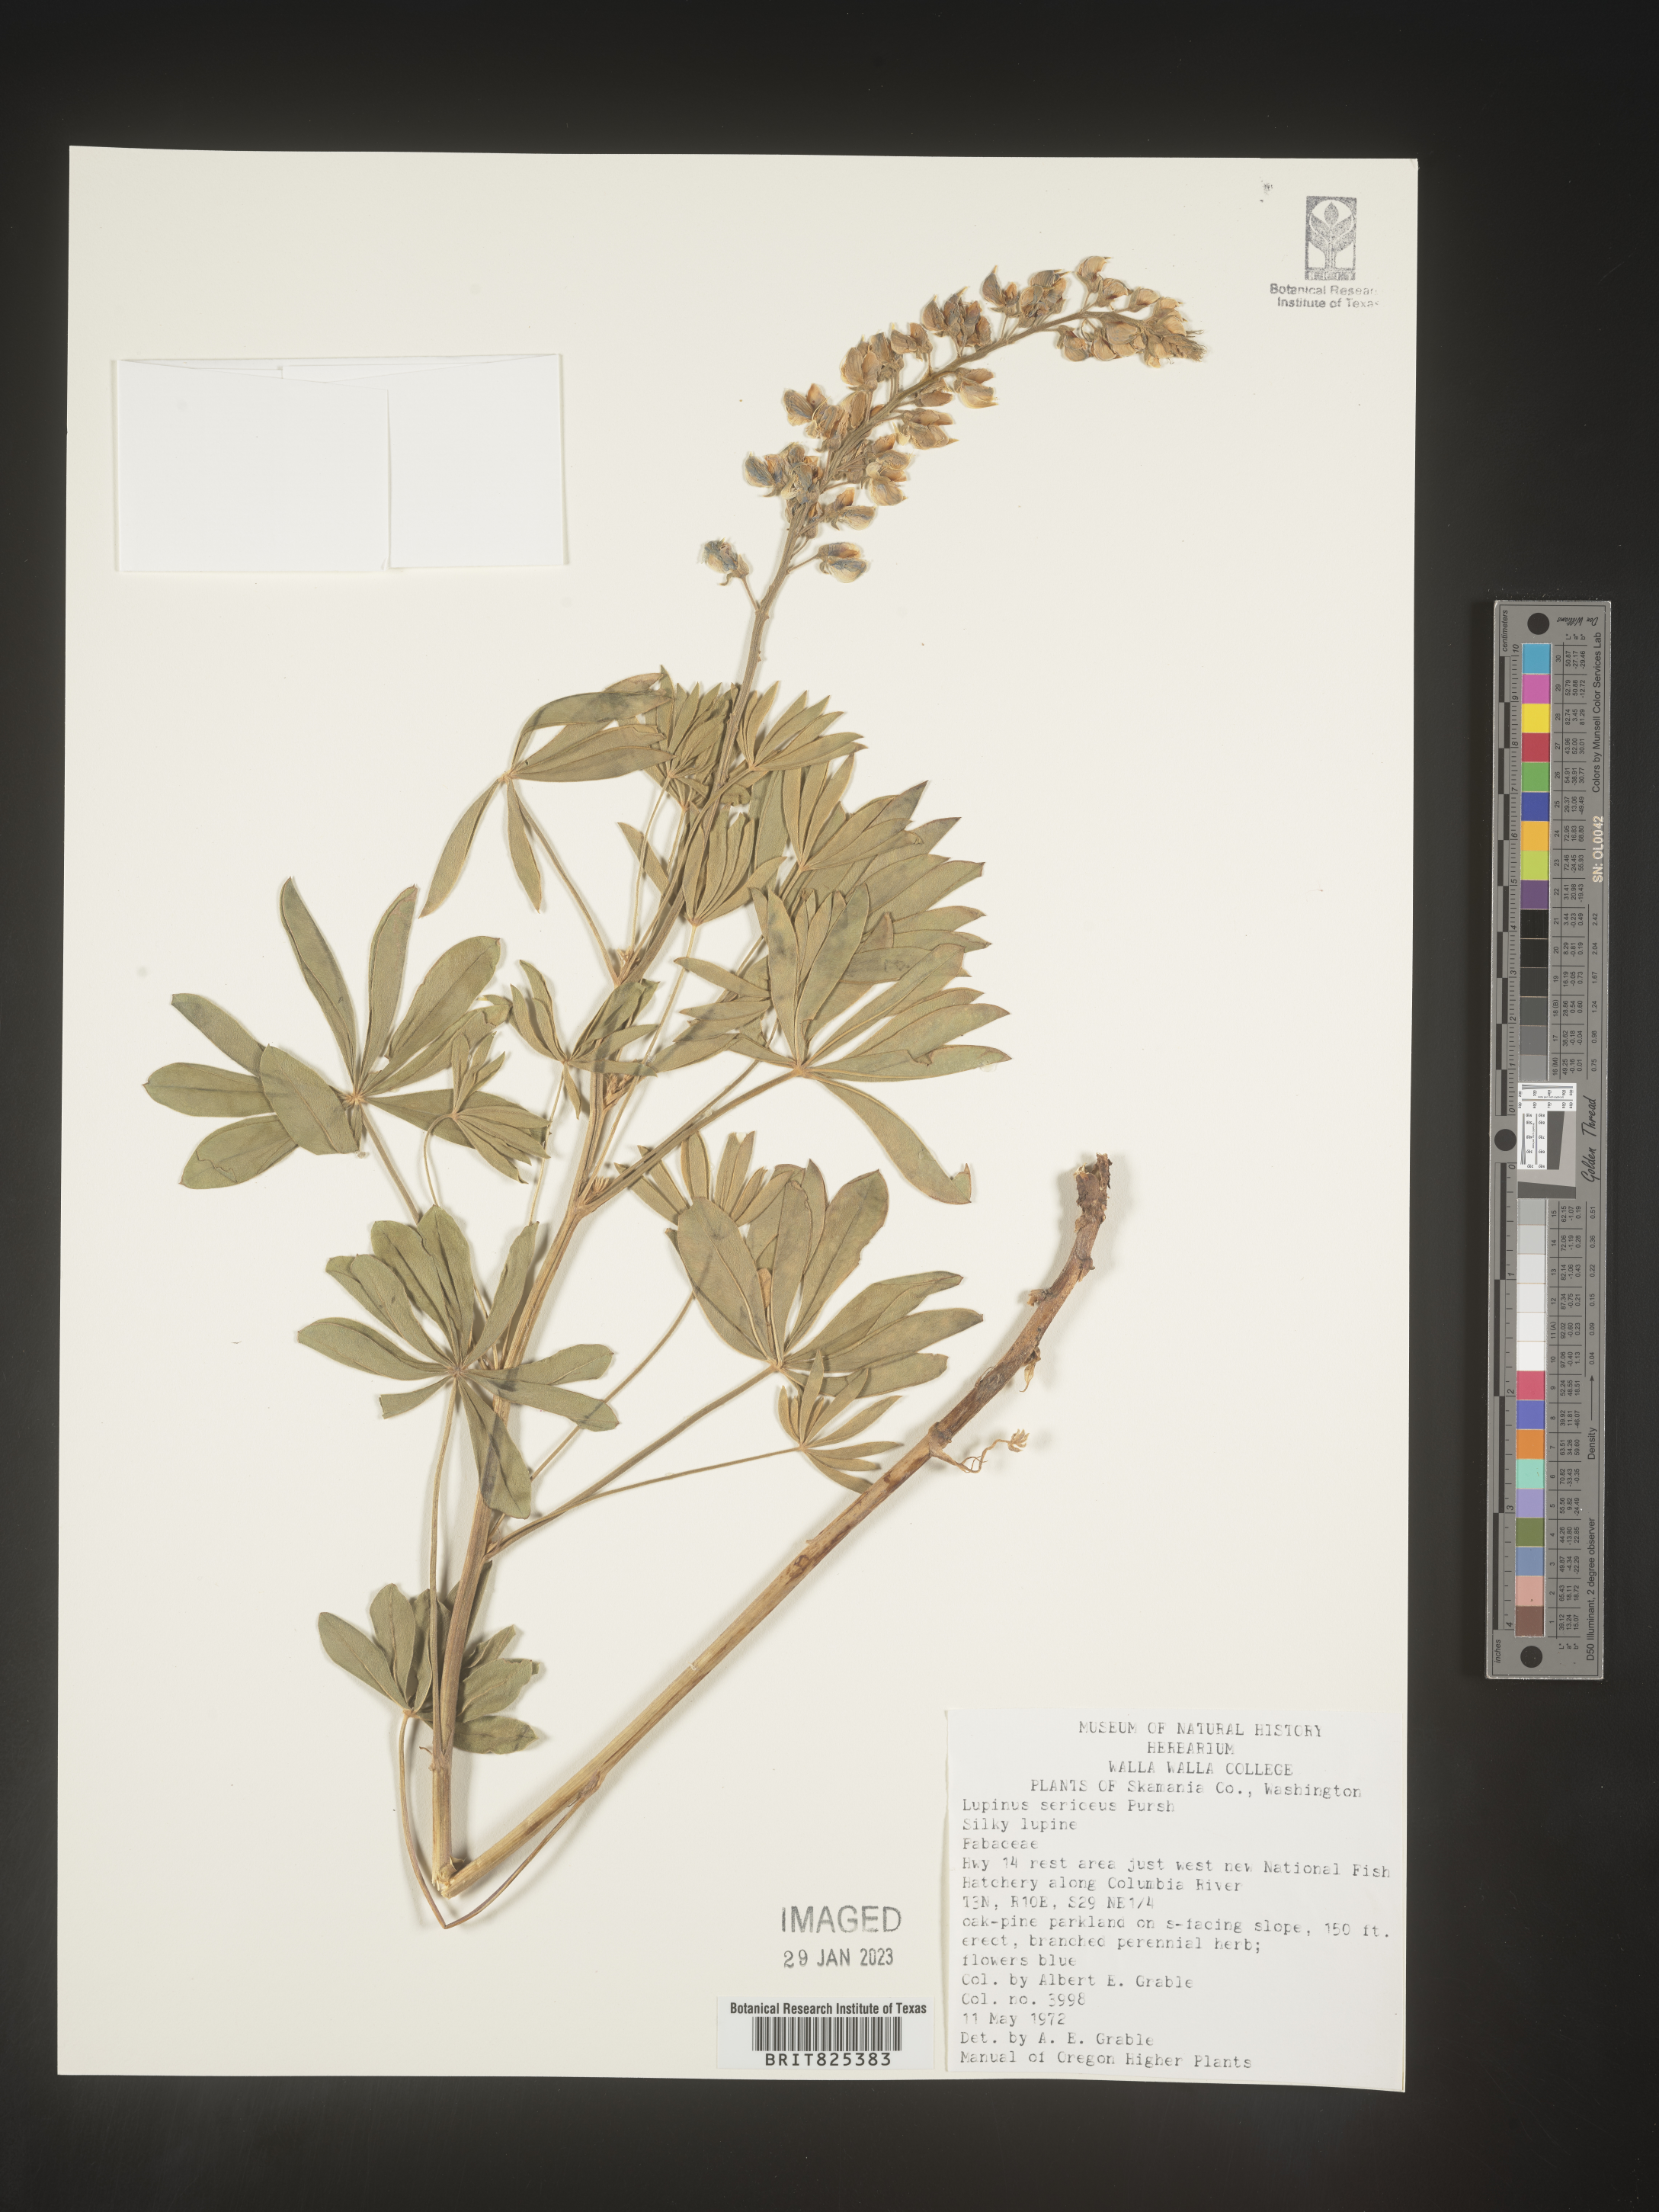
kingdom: Plantae
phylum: Tracheophyta
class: Magnoliopsida
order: Fabales
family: Fabaceae
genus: Lupinus
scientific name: Lupinus sericeus
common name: Silky lupine
